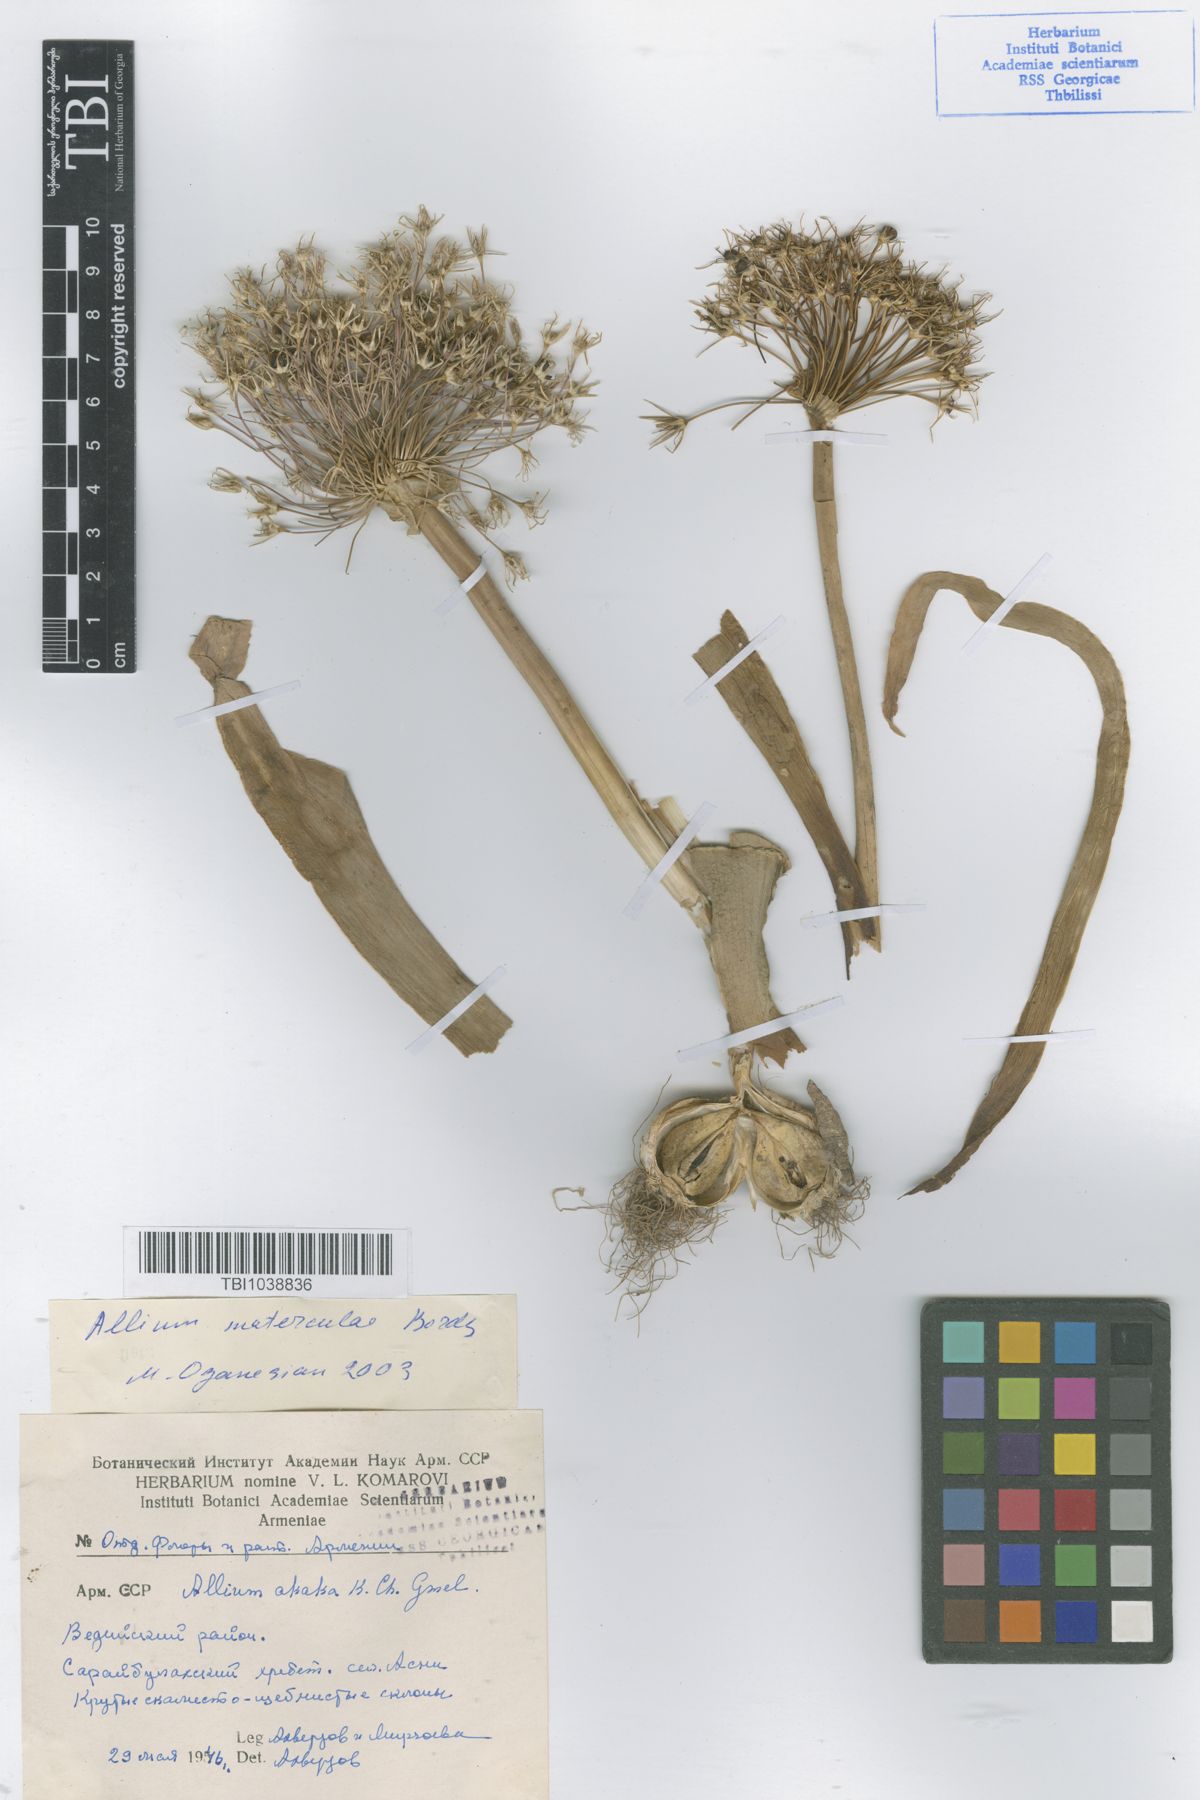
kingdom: Plantae
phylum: Tracheophyta
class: Liliopsida
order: Asparagales
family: Amaryllidaceae
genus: Allium
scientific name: Allium materculae
